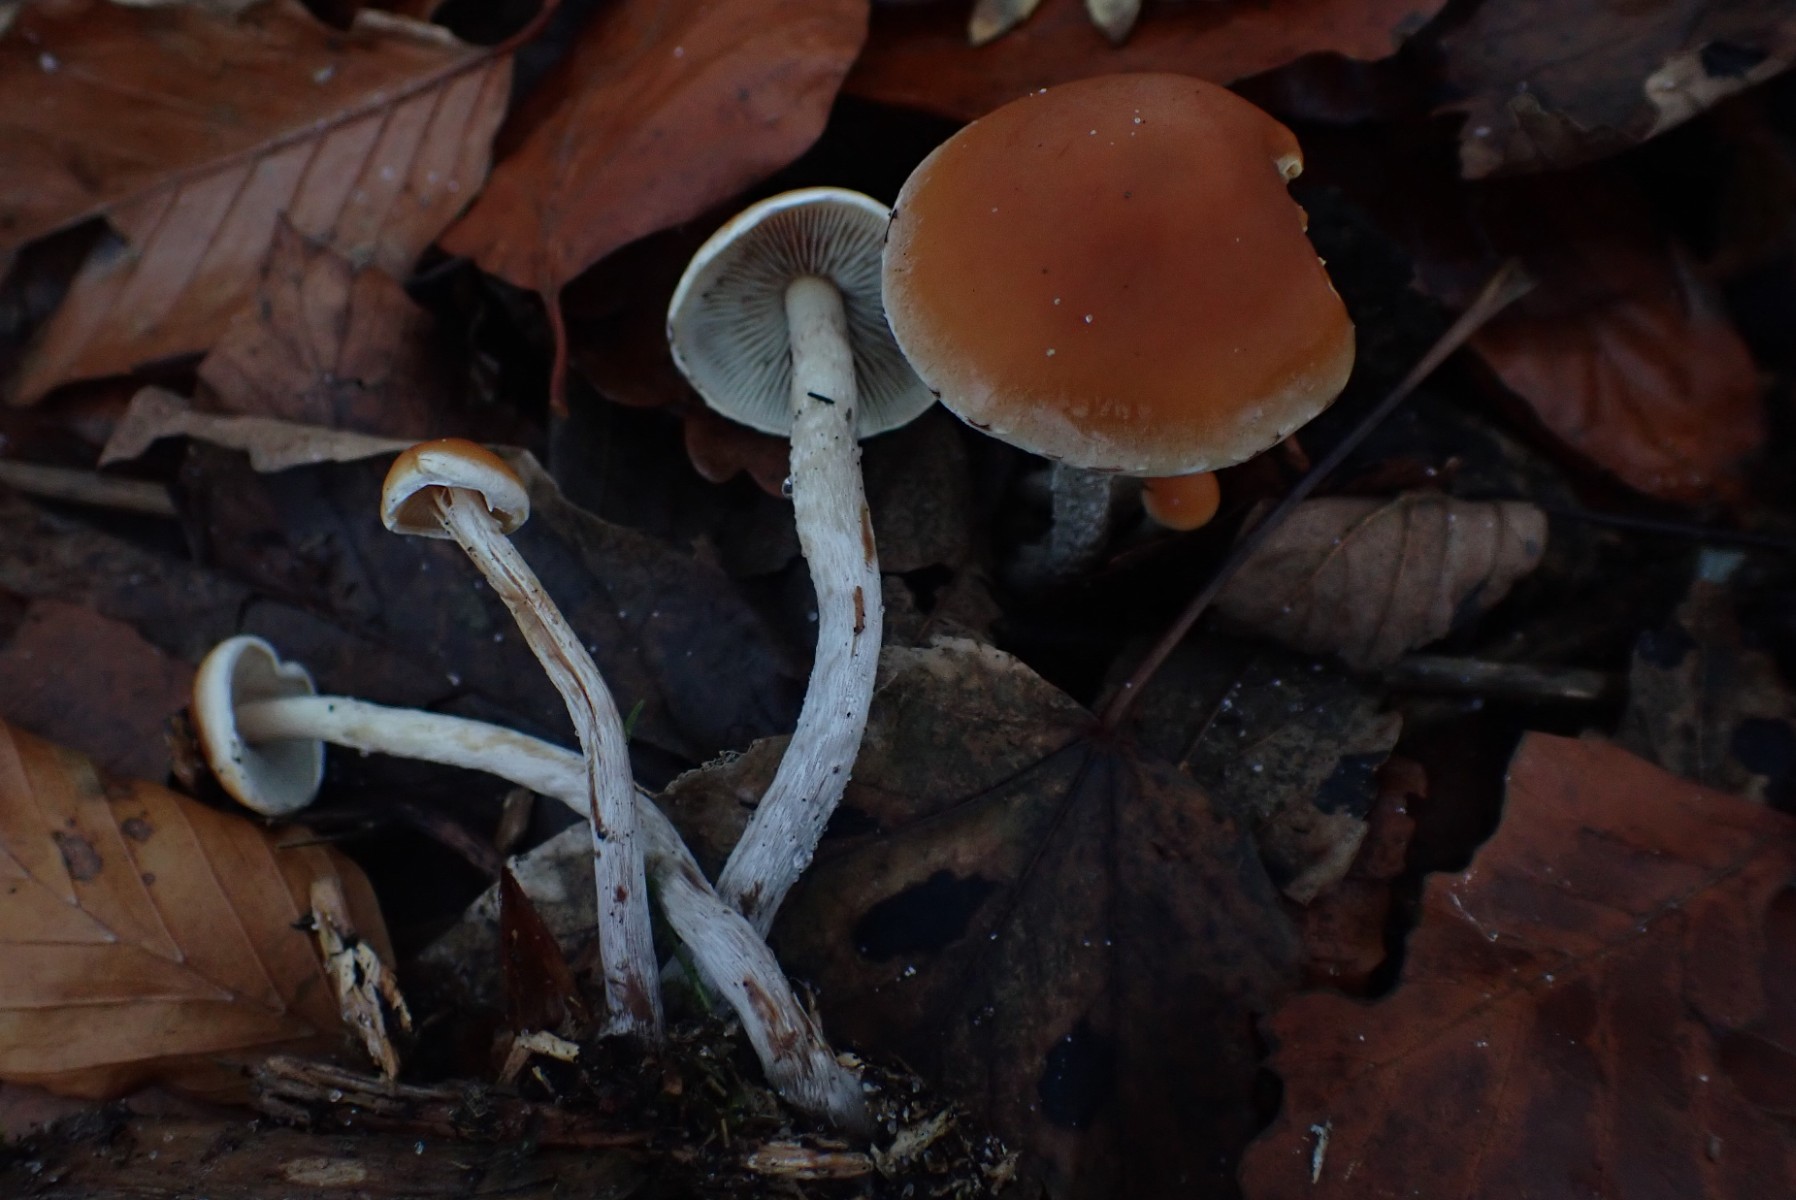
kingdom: Fungi
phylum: Basidiomycota
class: Agaricomycetes
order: Agaricales
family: Strophariaceae
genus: Hypholoma
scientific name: Hypholoma marginatum
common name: enlig svovlhat
